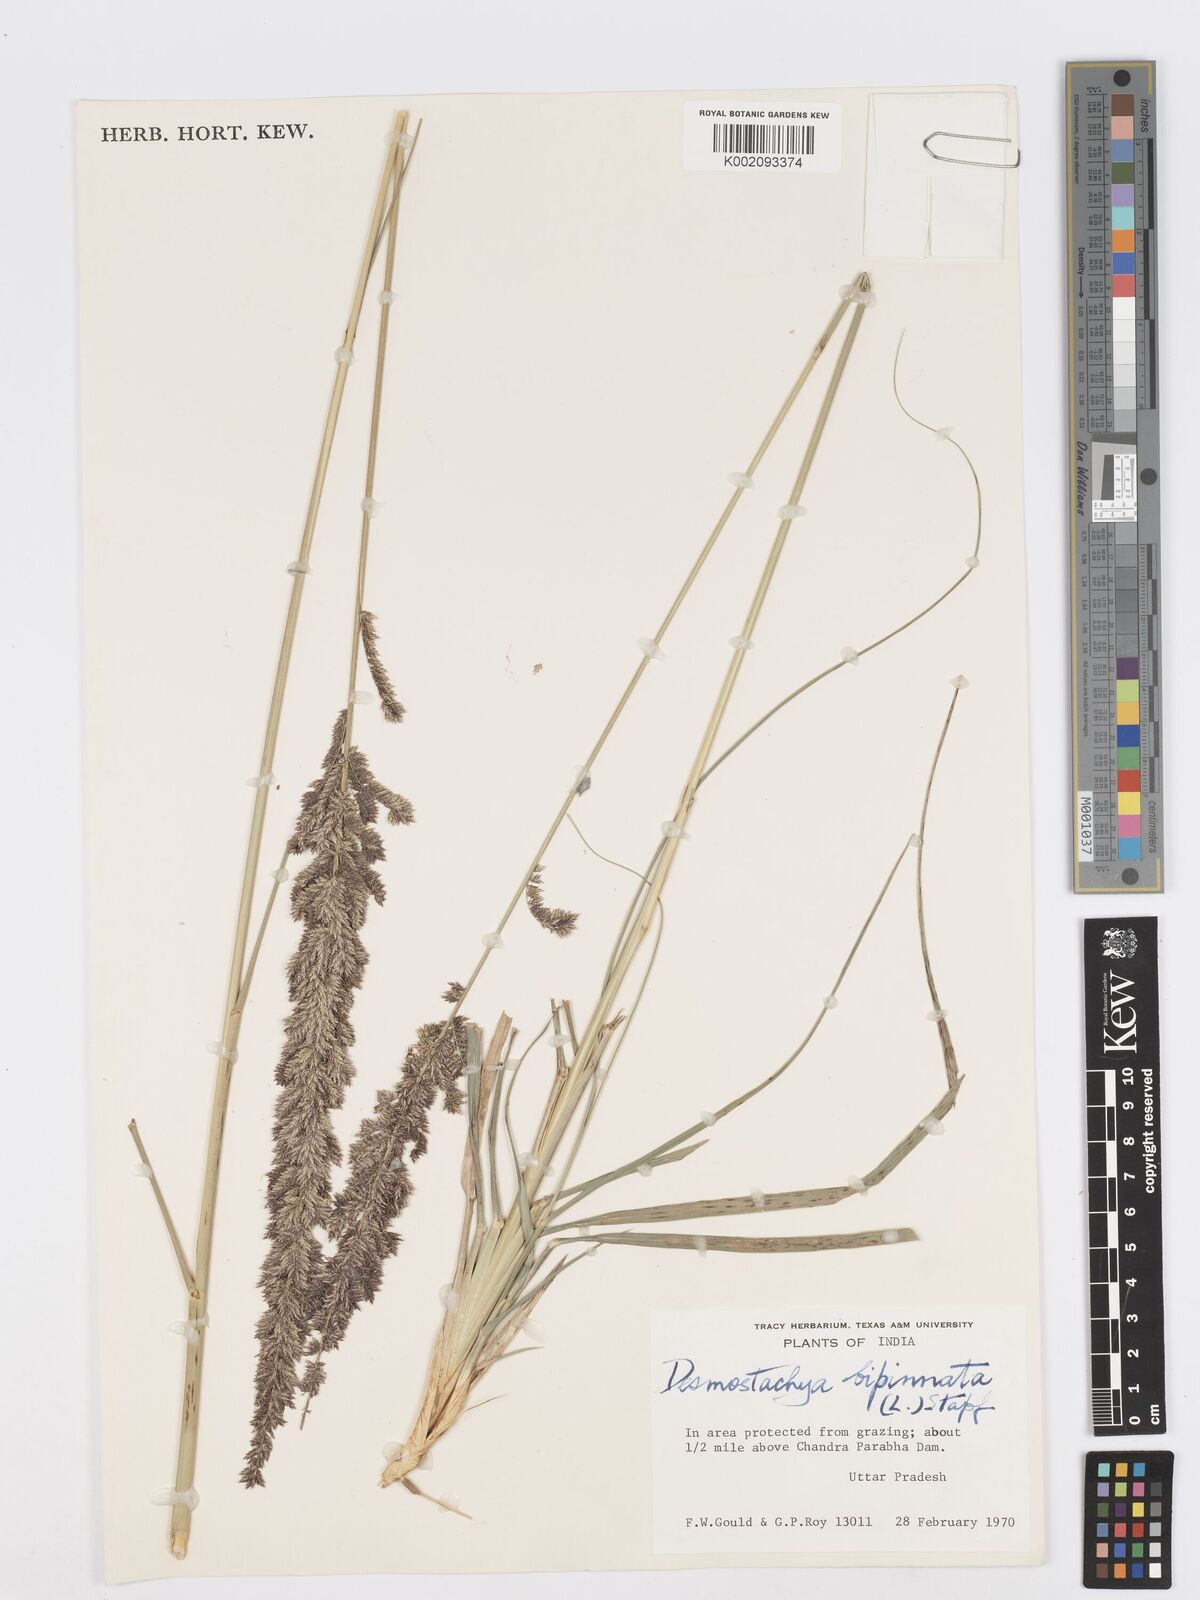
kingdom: Plantae
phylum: Tracheophyta
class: Liliopsida
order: Poales
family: Poaceae
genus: Desmostachya
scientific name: Desmostachya bipinnata
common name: Crowfoot grass
